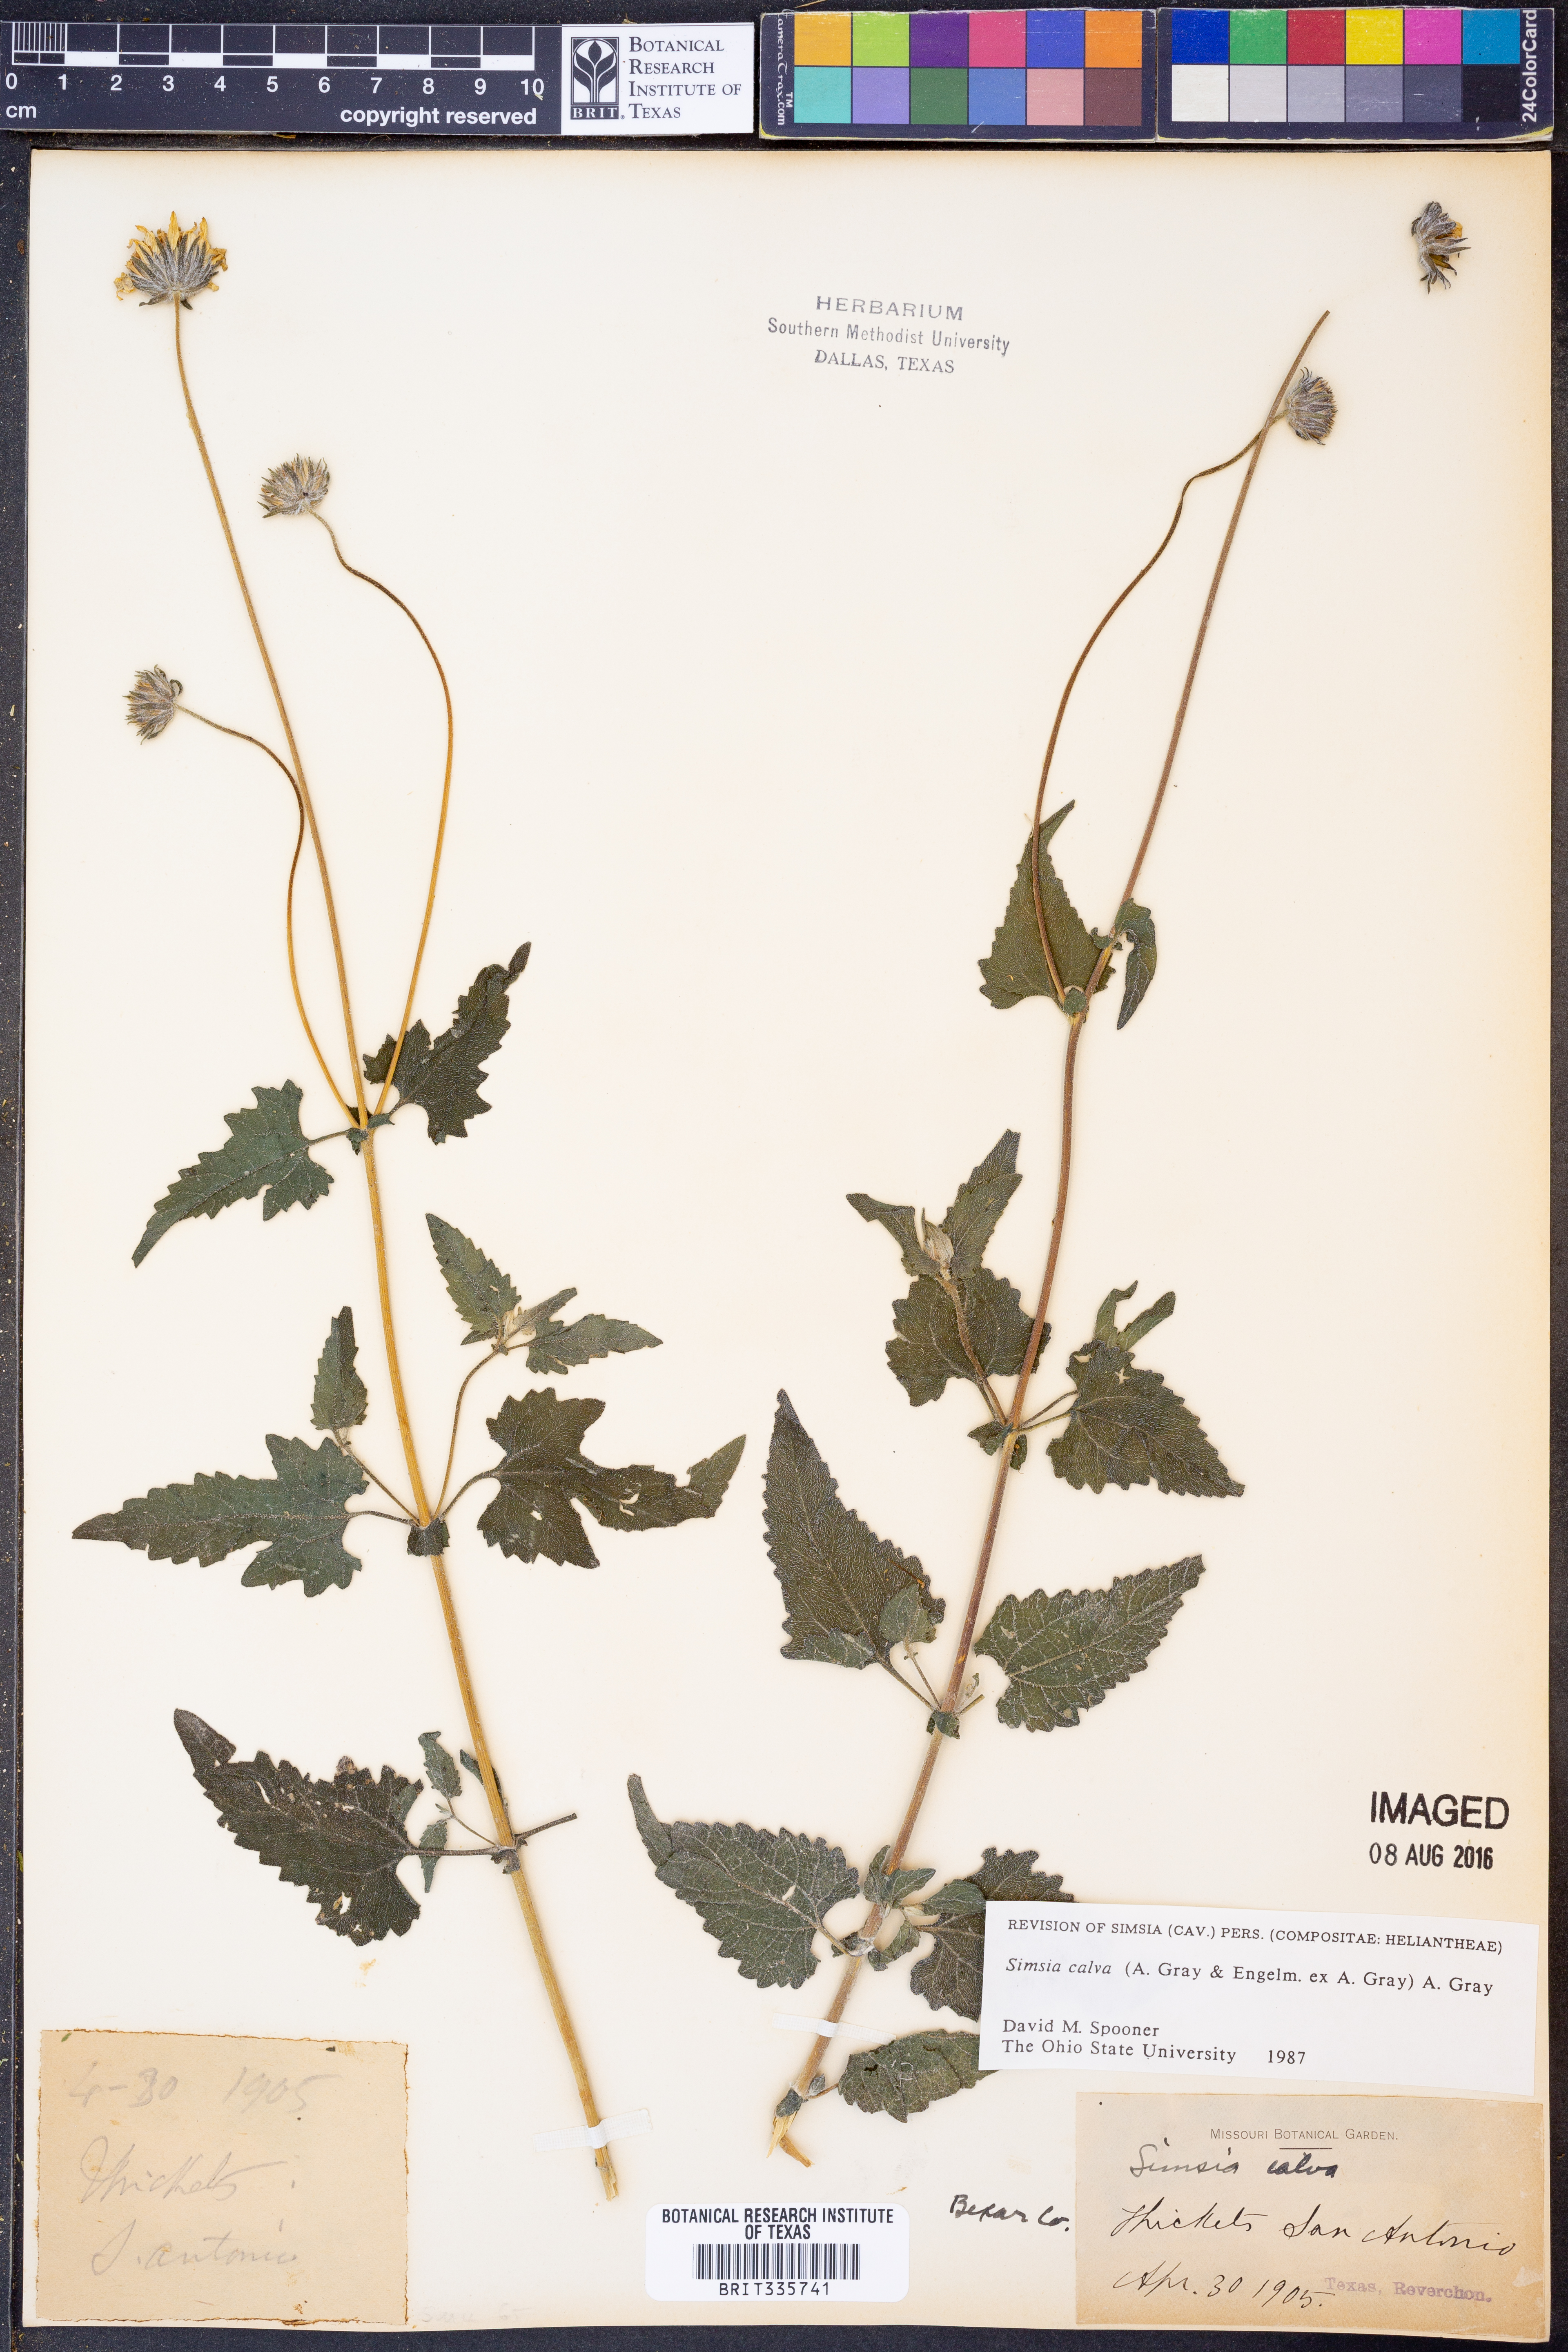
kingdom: Plantae
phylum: Tracheophyta
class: Magnoliopsida
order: Asterales
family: Asteraceae
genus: Simsia
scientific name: Simsia calva
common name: Awnless bush-sunflower
